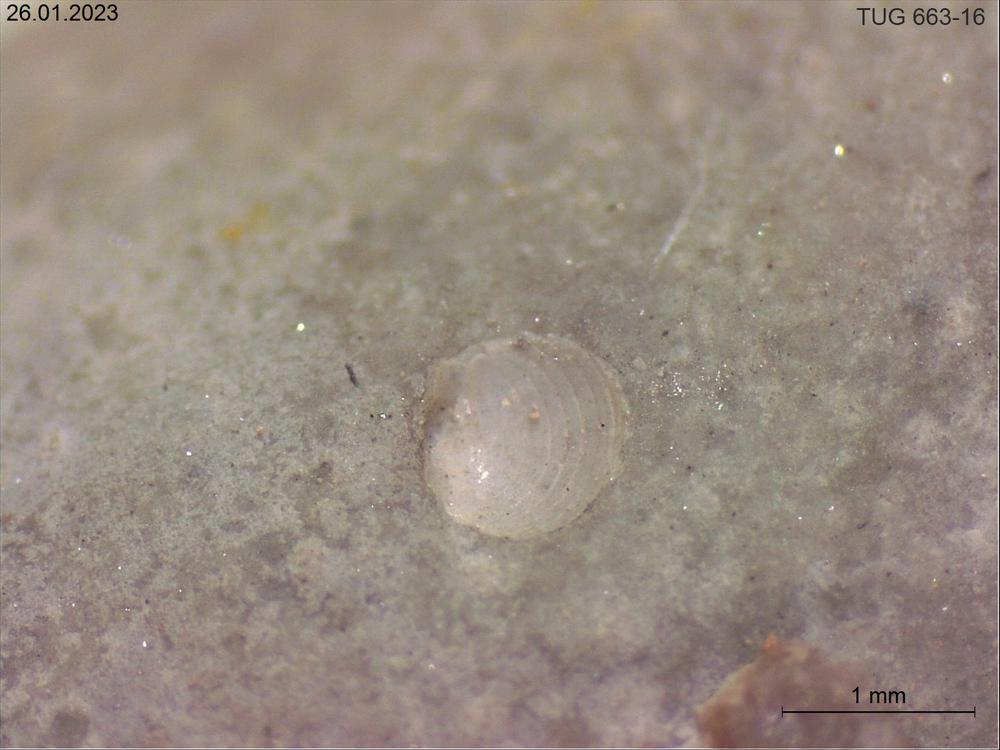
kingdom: Animalia
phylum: Mollusca
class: Cephalopoda
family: Endoceratidae
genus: Endoceras
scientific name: Endoceras
